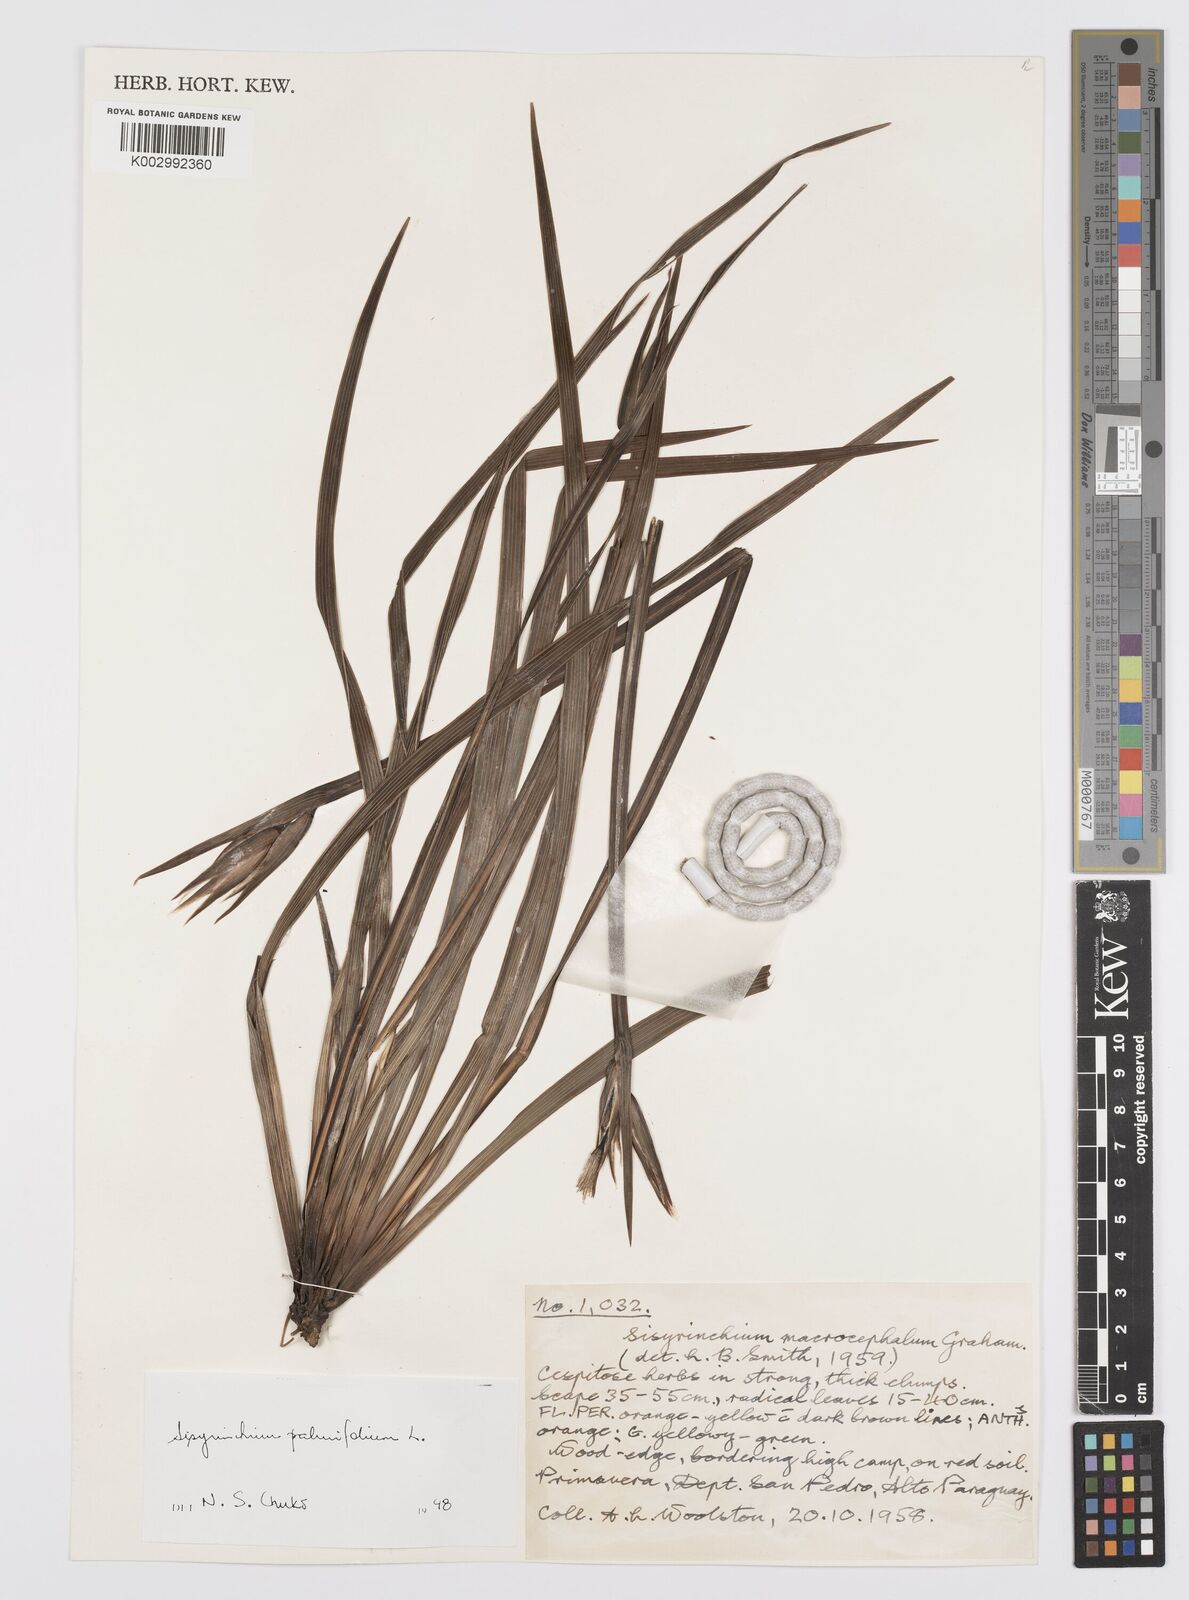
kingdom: Plantae
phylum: Tracheophyta
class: Liliopsida
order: Asparagales
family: Iridaceae
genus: Sisyrinchium
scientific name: Sisyrinchium palmifolium
